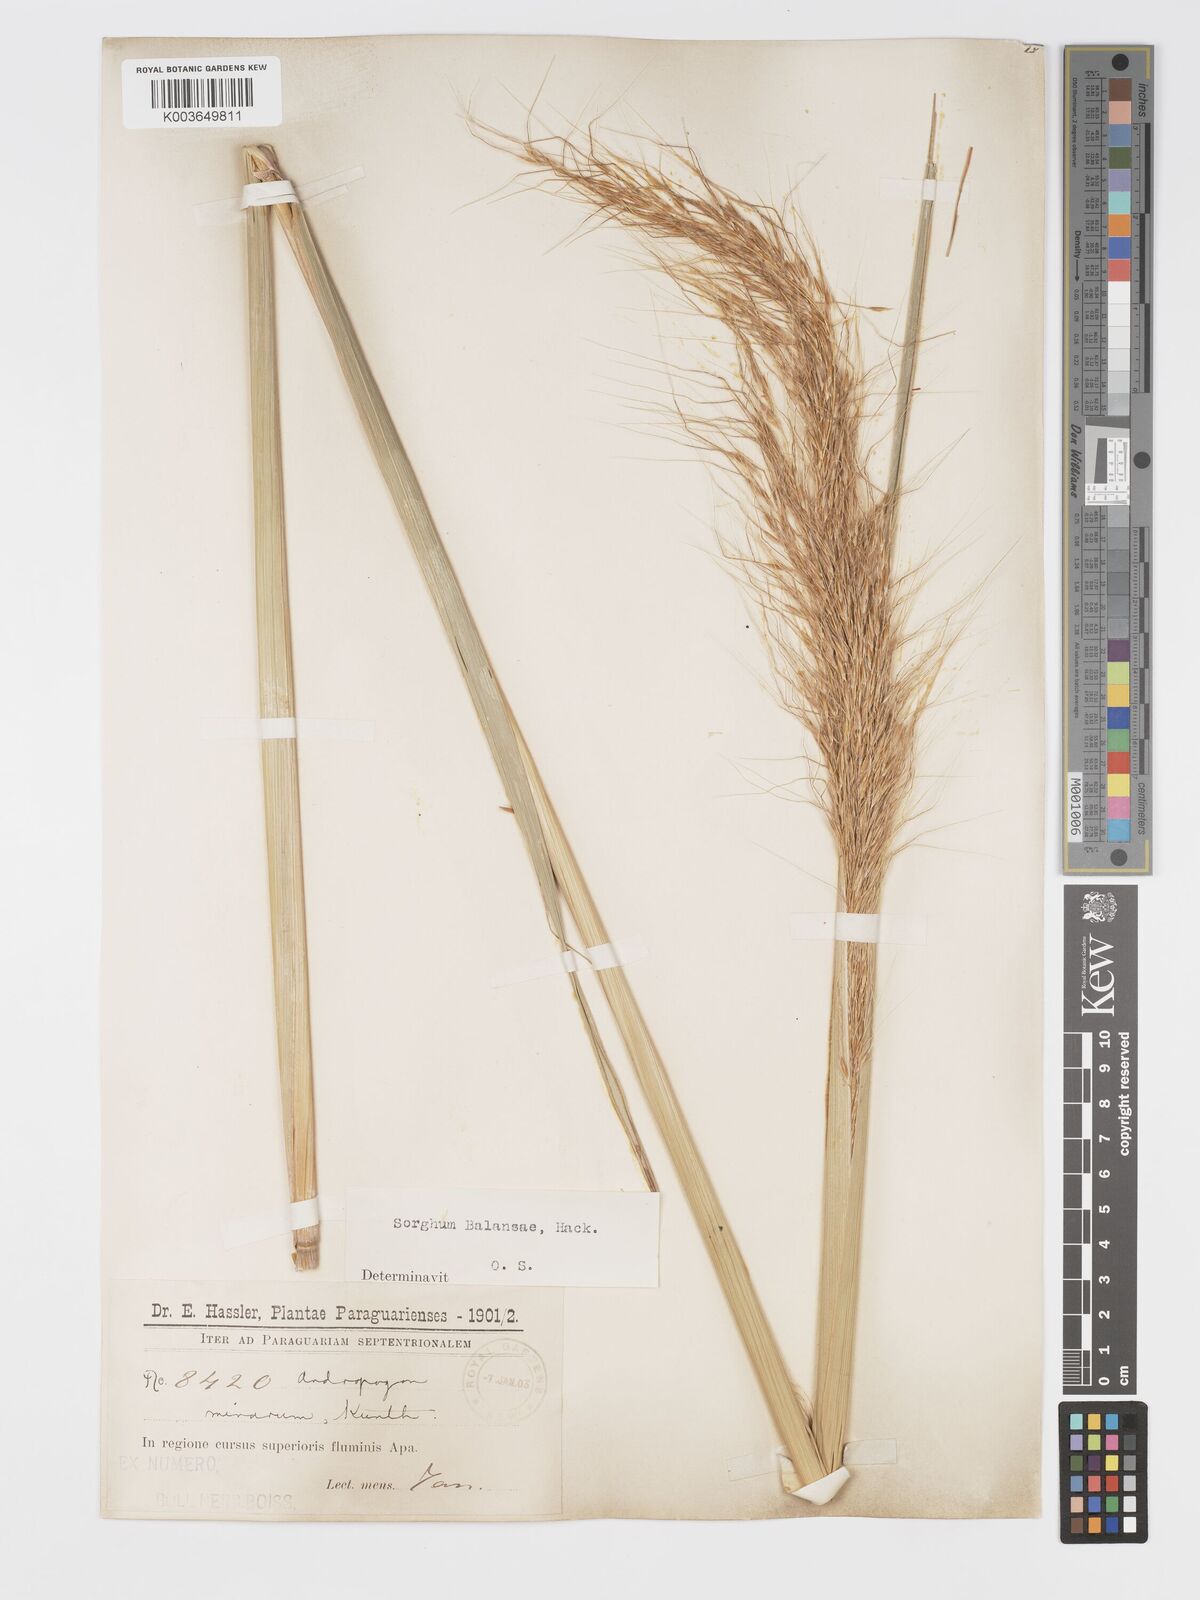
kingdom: Plantae
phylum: Tracheophyta
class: Liliopsida
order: Poales
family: Poaceae
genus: Sorghastrum
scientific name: Sorghastrum balansae
